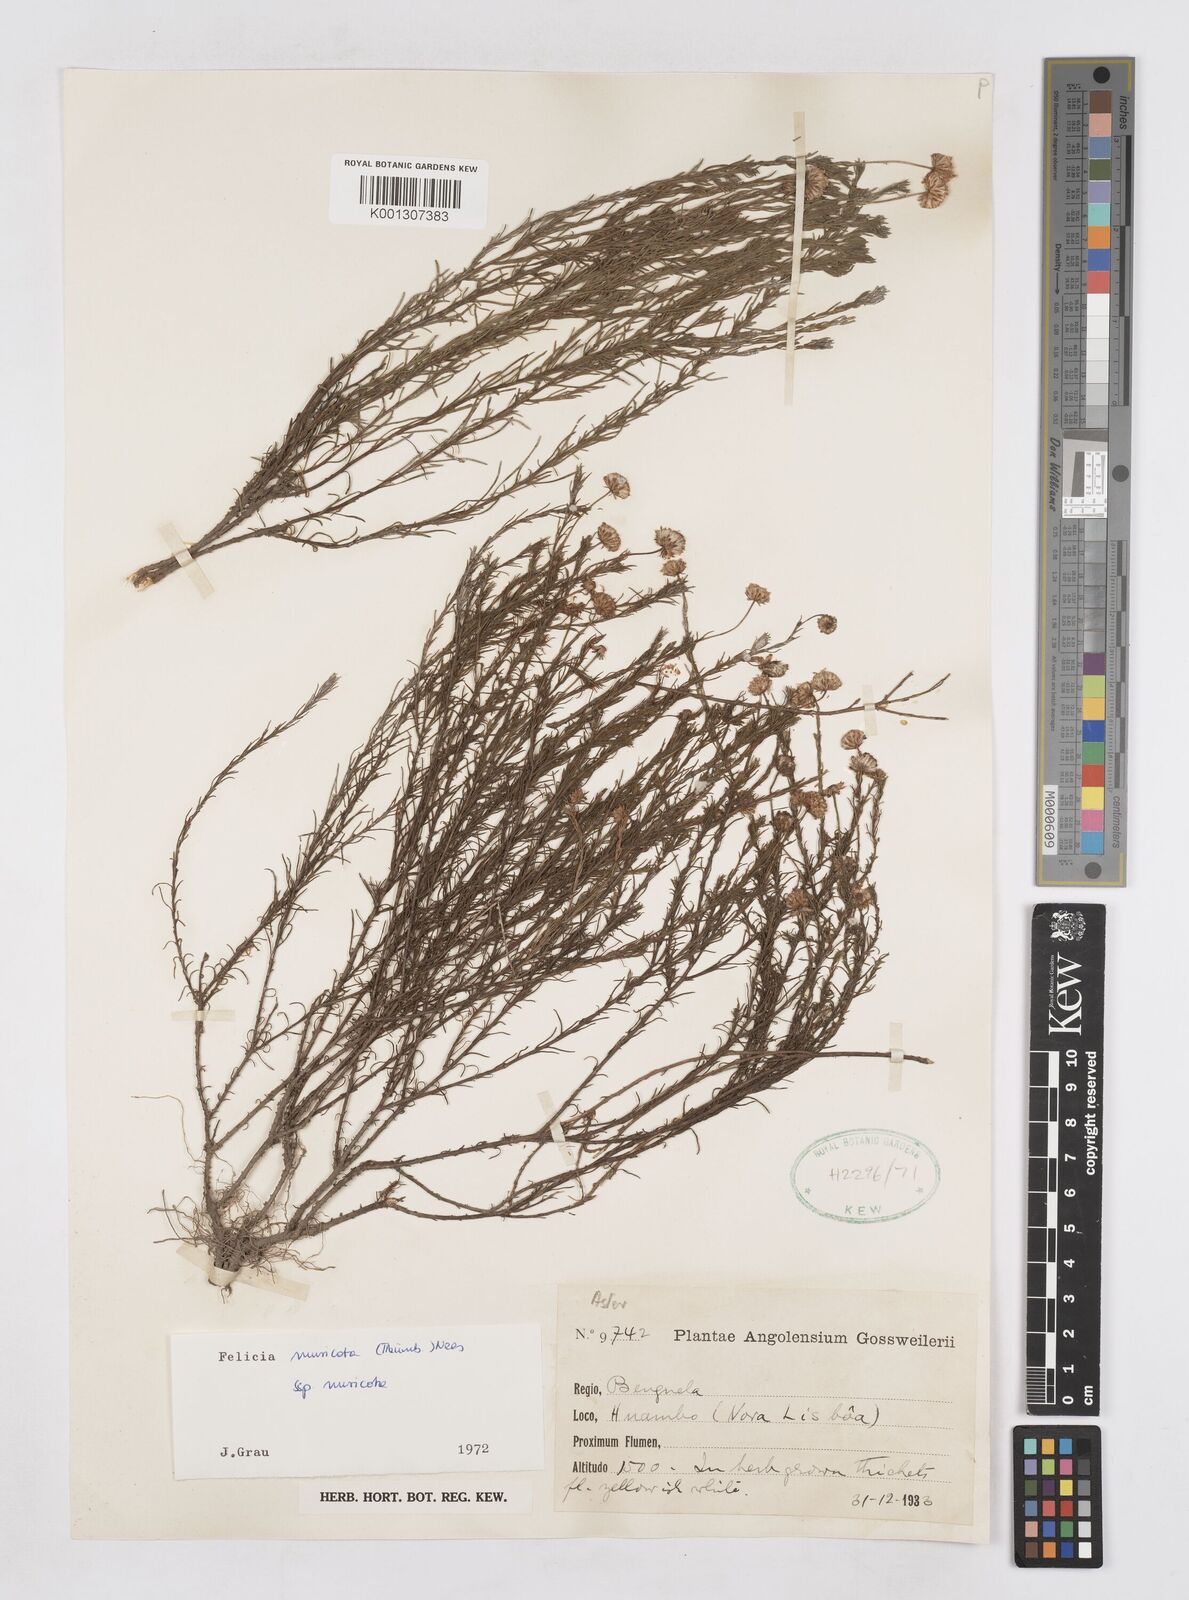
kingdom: Plantae
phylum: Tracheophyta
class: Magnoliopsida
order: Asterales
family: Asteraceae
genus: Felicia
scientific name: Felicia muricata
